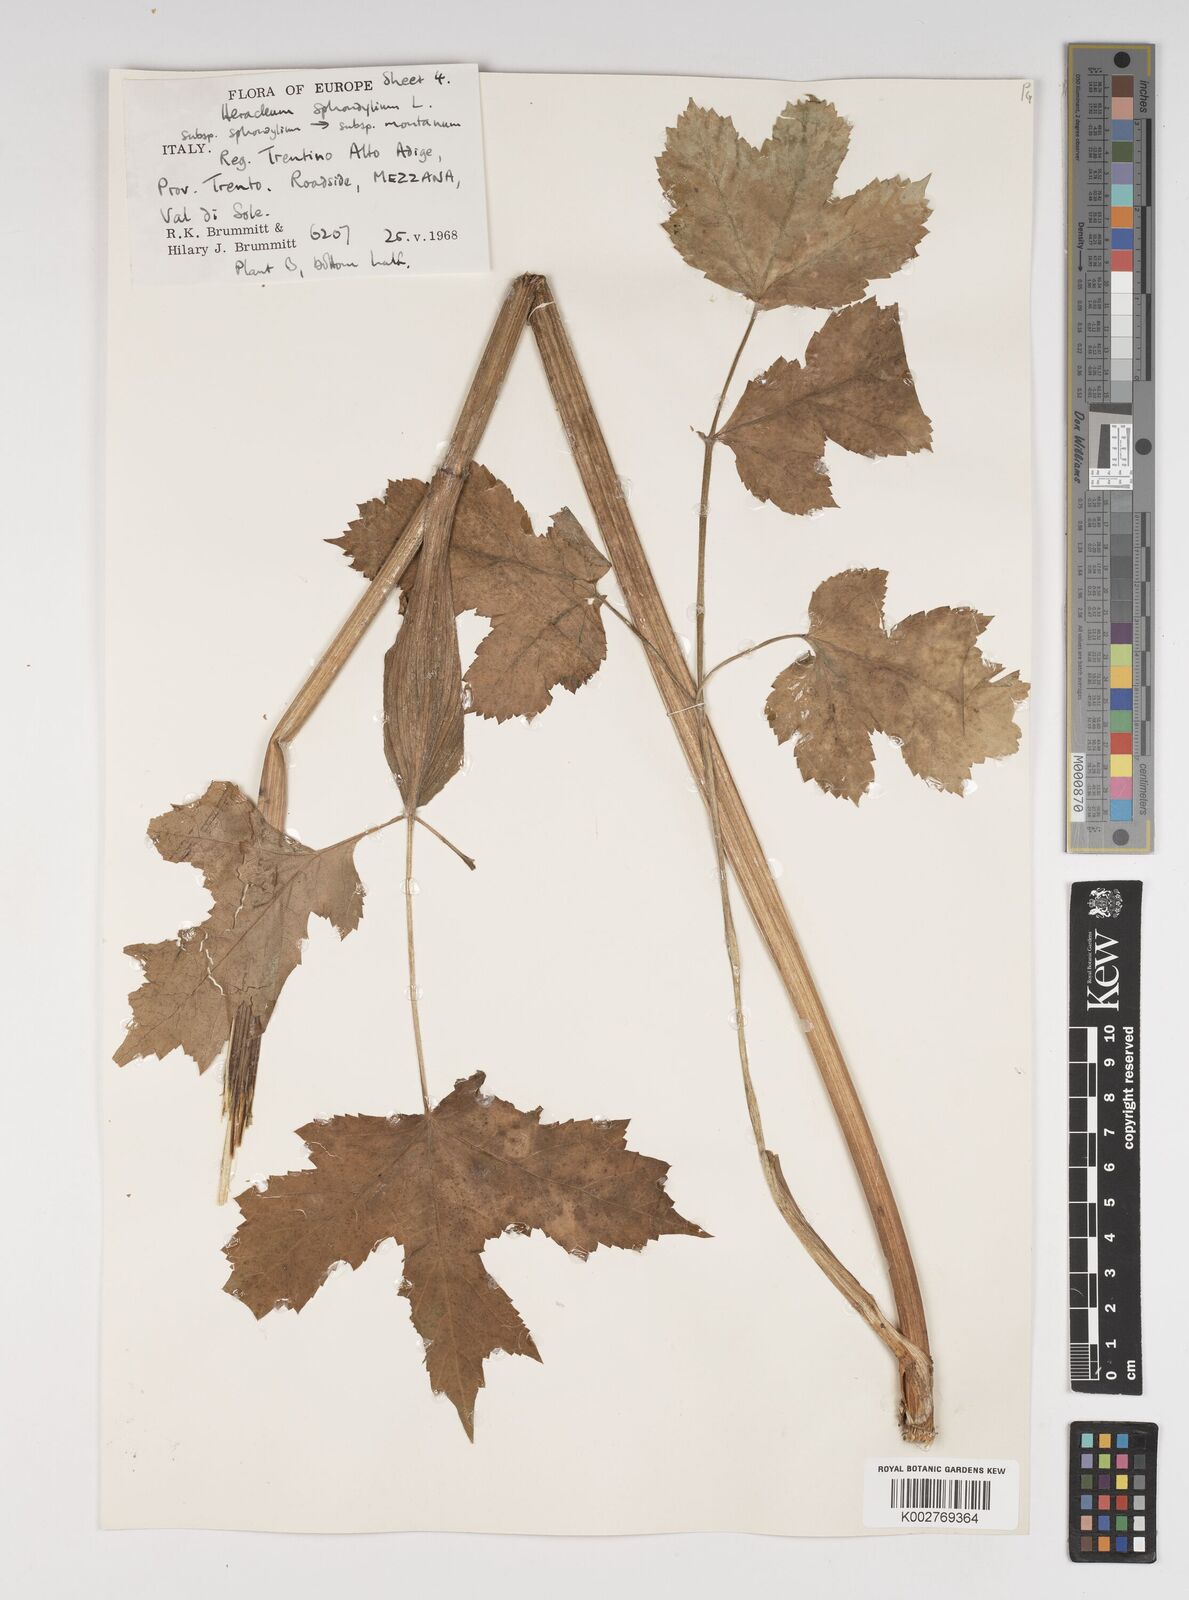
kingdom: Plantae
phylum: Tracheophyta
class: Magnoliopsida
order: Apiales
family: Apiaceae
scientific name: Apiaceae
